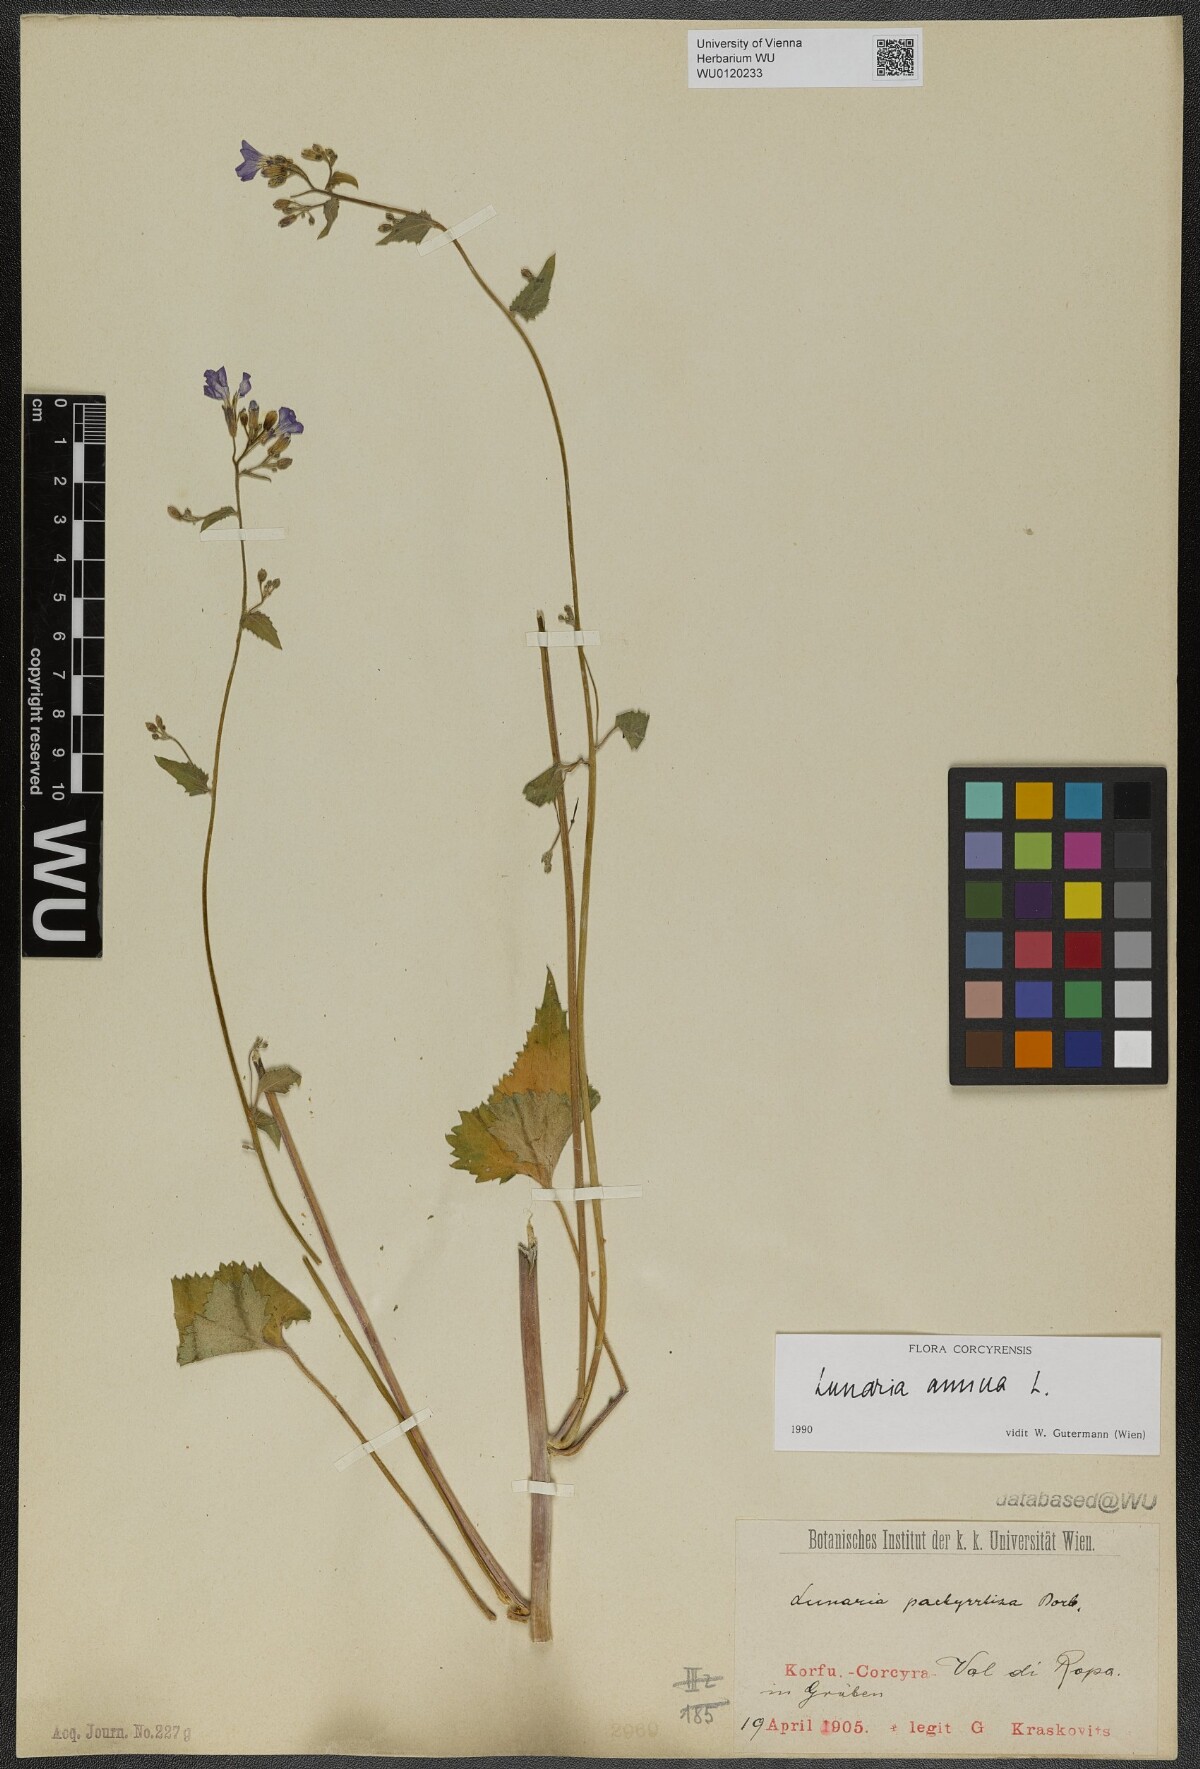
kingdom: Plantae
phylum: Tracheophyta
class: Magnoliopsida
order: Brassicales
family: Brassicaceae
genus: Lunaria
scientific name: Lunaria annua
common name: Honesty
